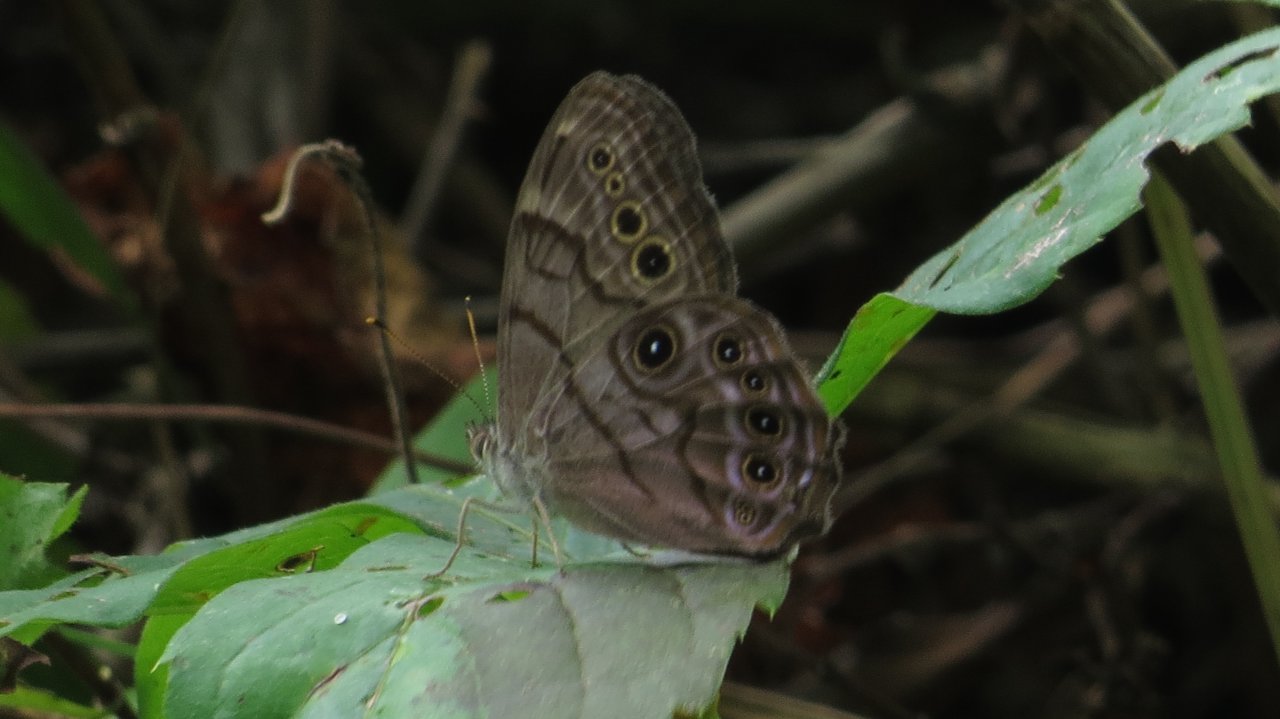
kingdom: Animalia
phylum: Arthropoda
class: Insecta
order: Lepidoptera
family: Nymphalidae
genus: Lethe
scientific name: Lethe anthedon
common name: Northern Pearly-Eye
